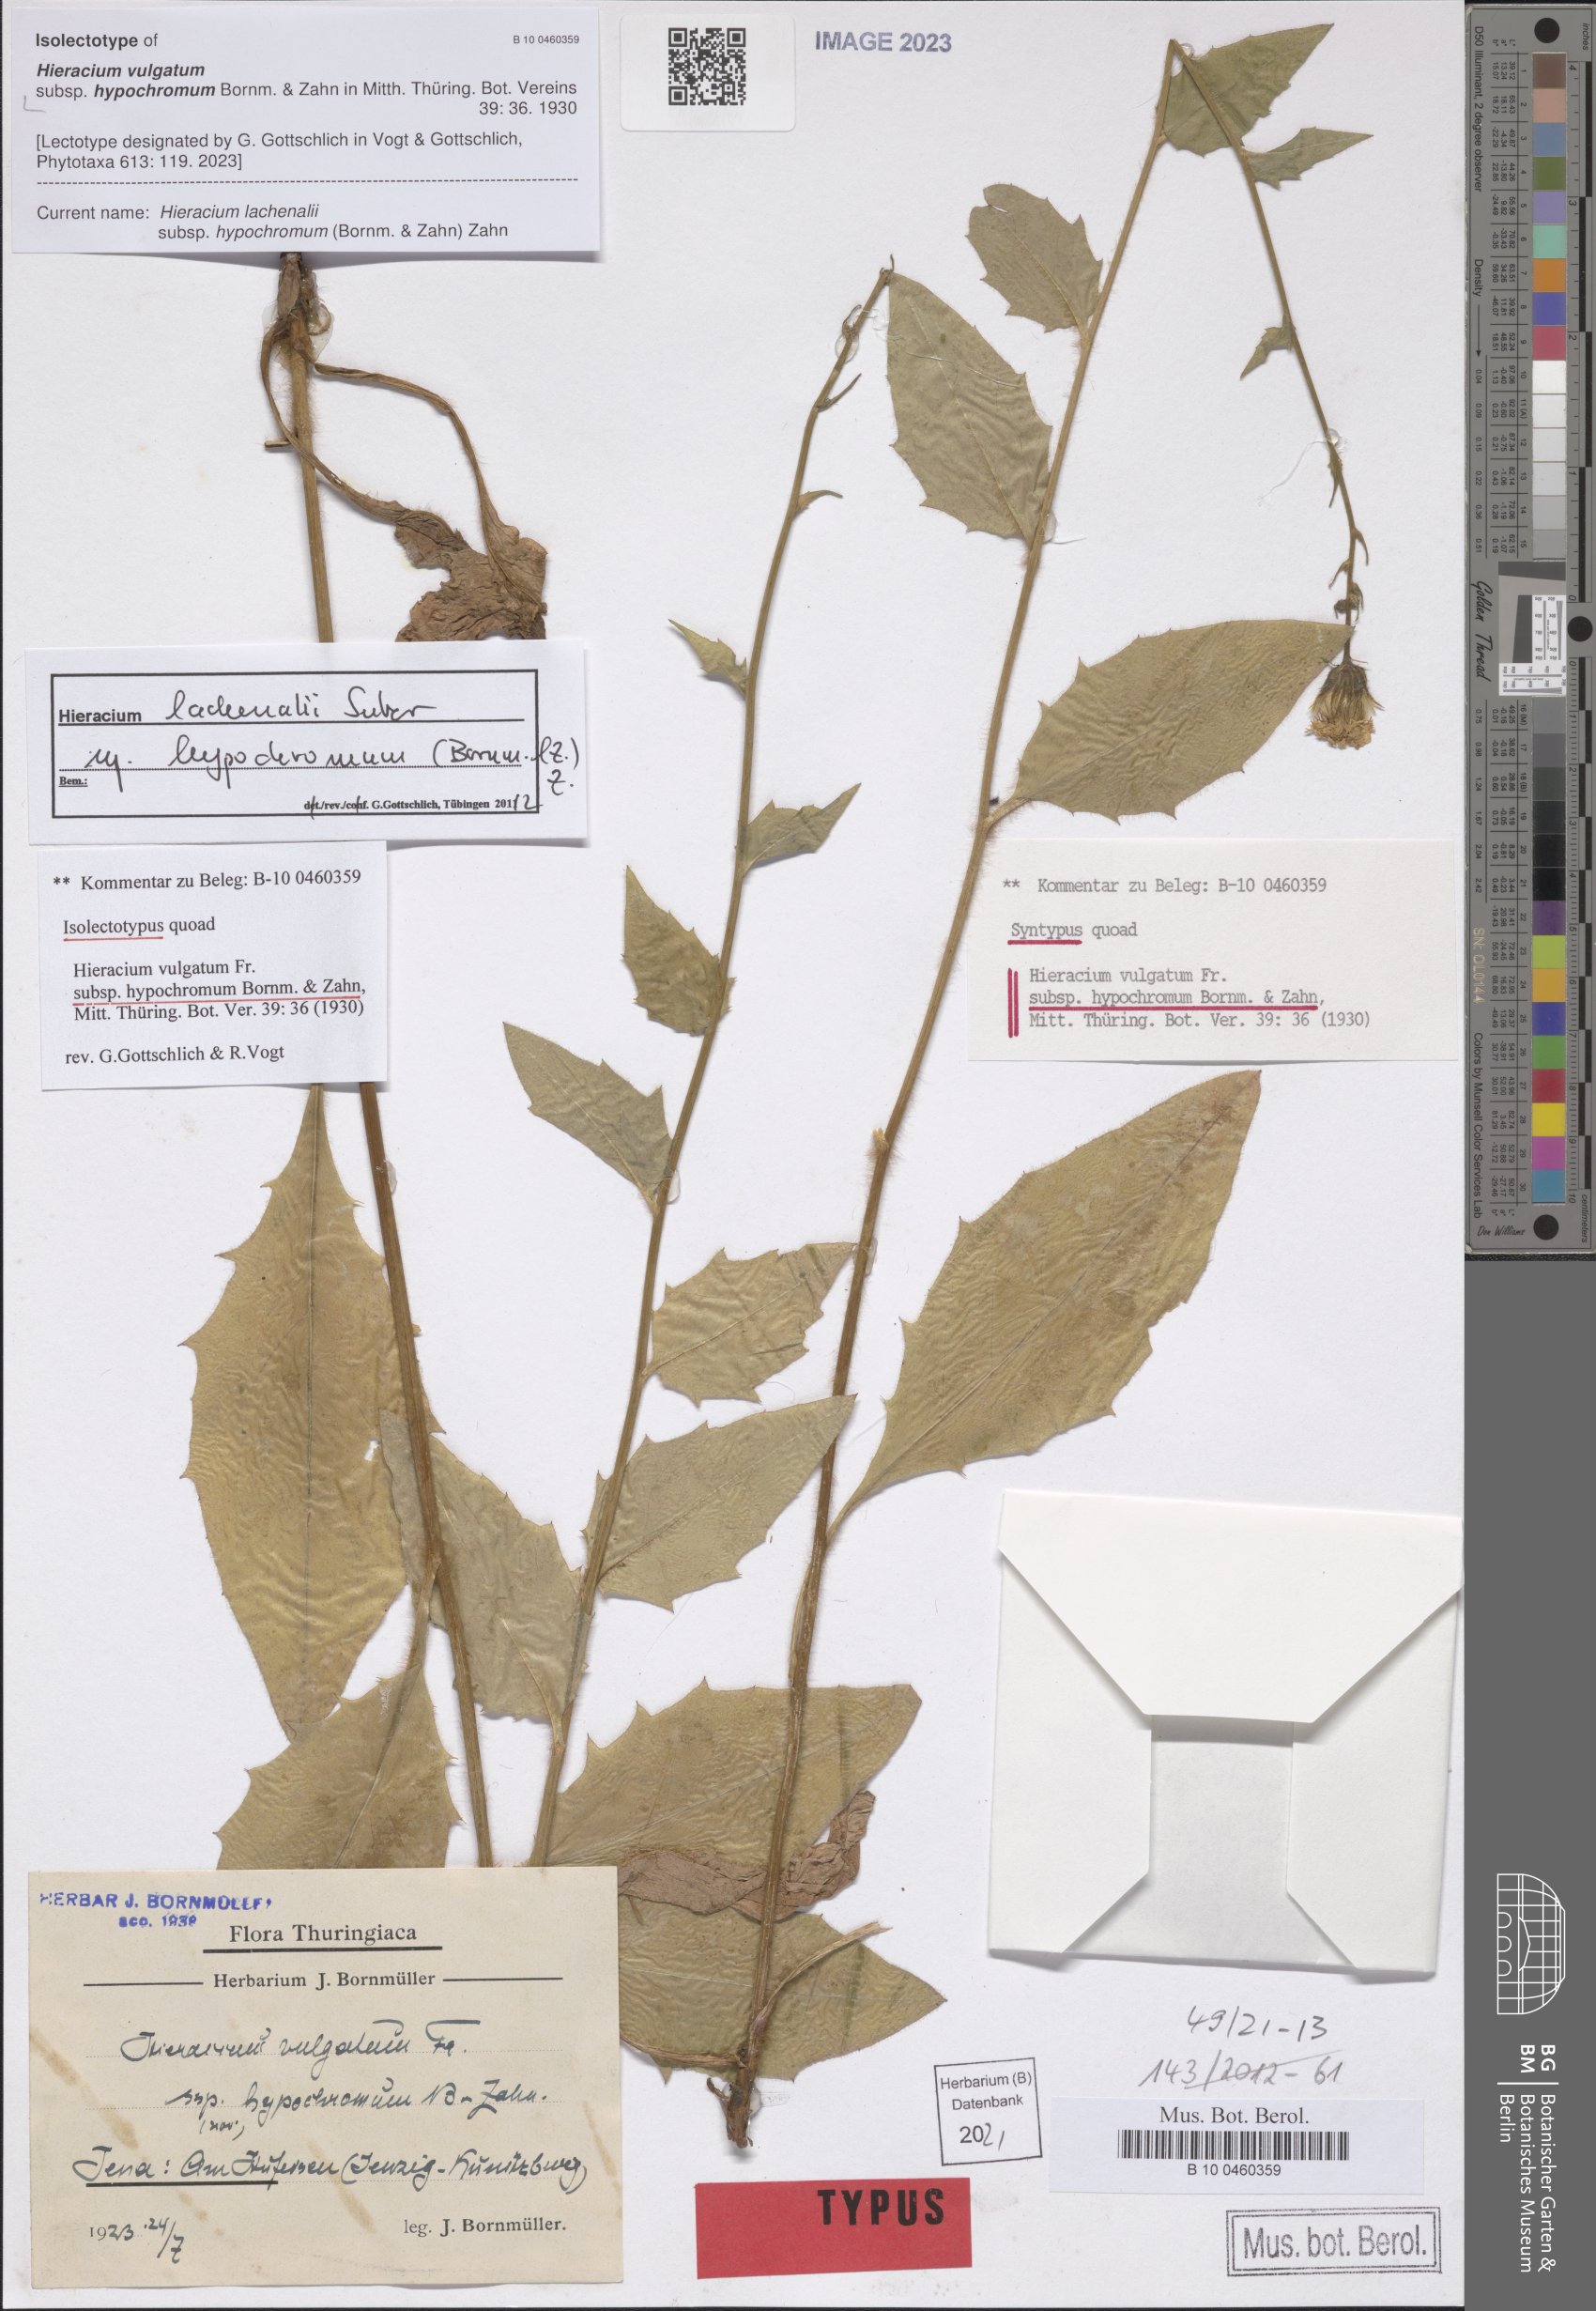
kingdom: Plantae
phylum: Tracheophyta
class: Magnoliopsida
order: Asterales
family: Asteraceae
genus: Hieracium
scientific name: Hieracium lachenalii
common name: Common hawkweed
